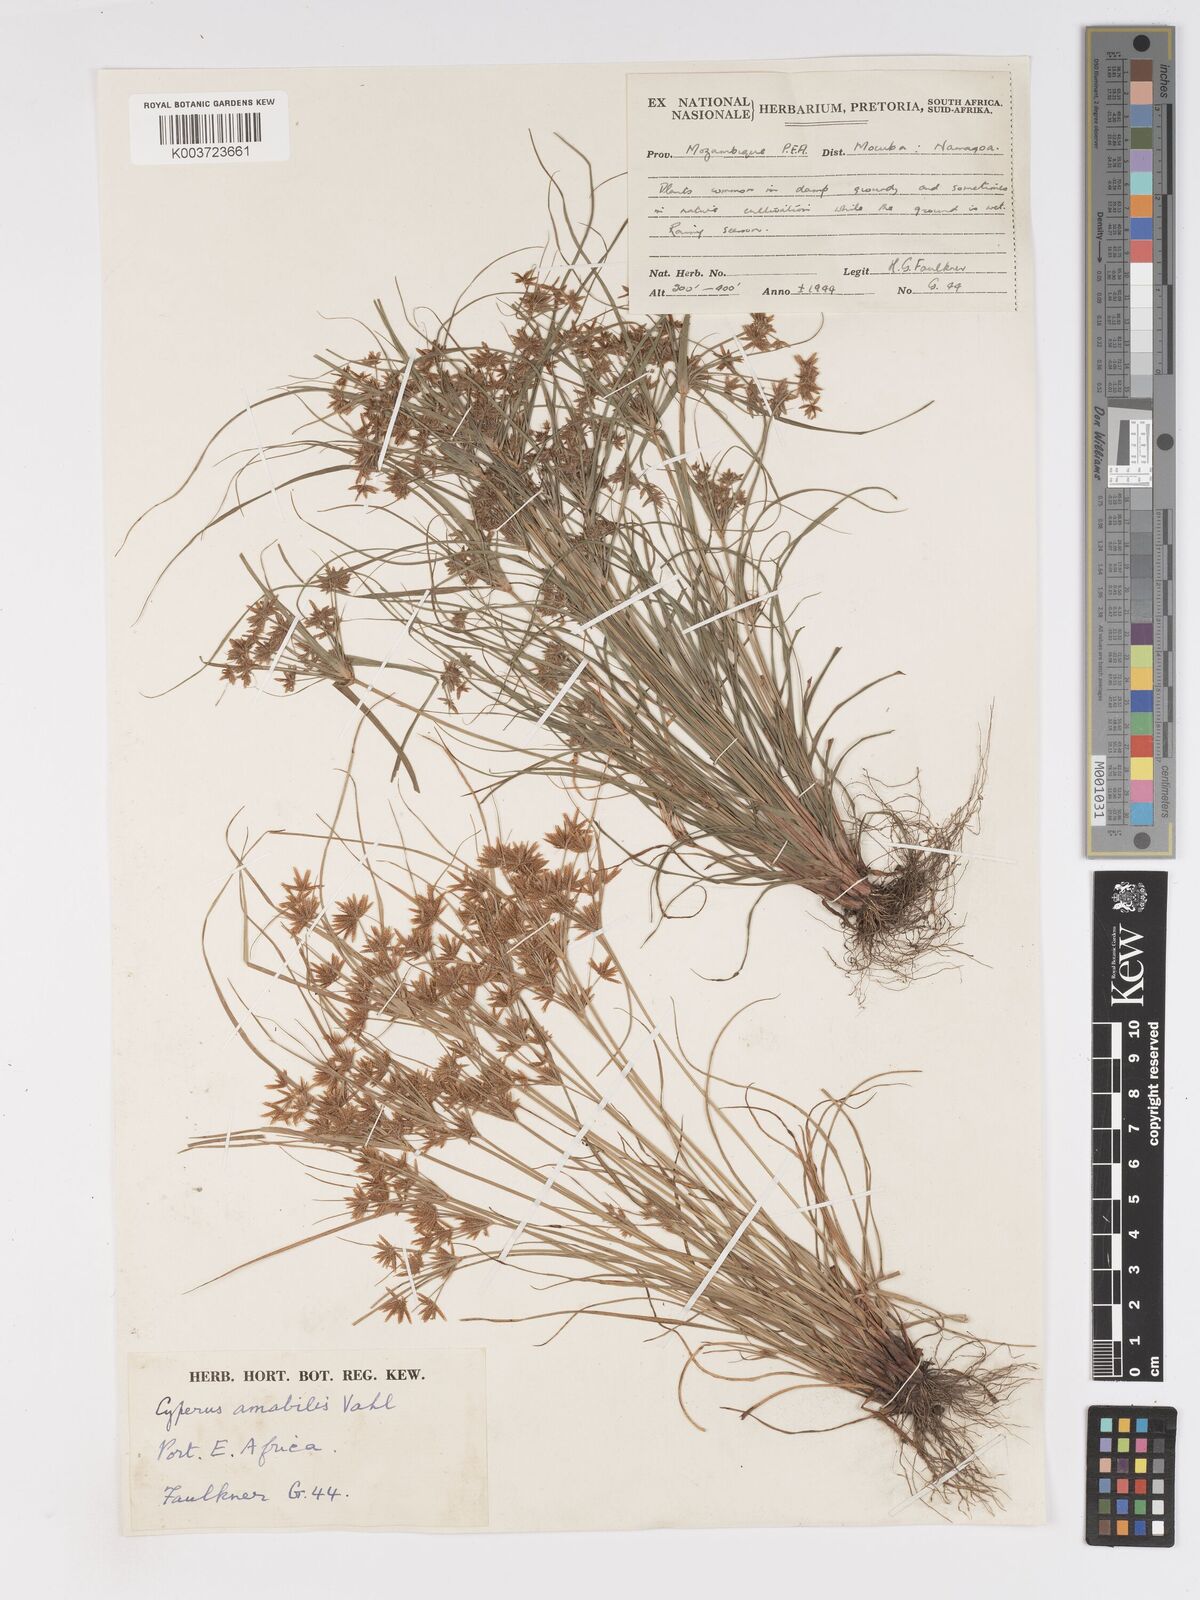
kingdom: Plantae
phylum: Tracheophyta
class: Liliopsida
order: Poales
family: Cyperaceae
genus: Cyperus
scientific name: Cyperus amabilis
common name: Foothill flat sedge
